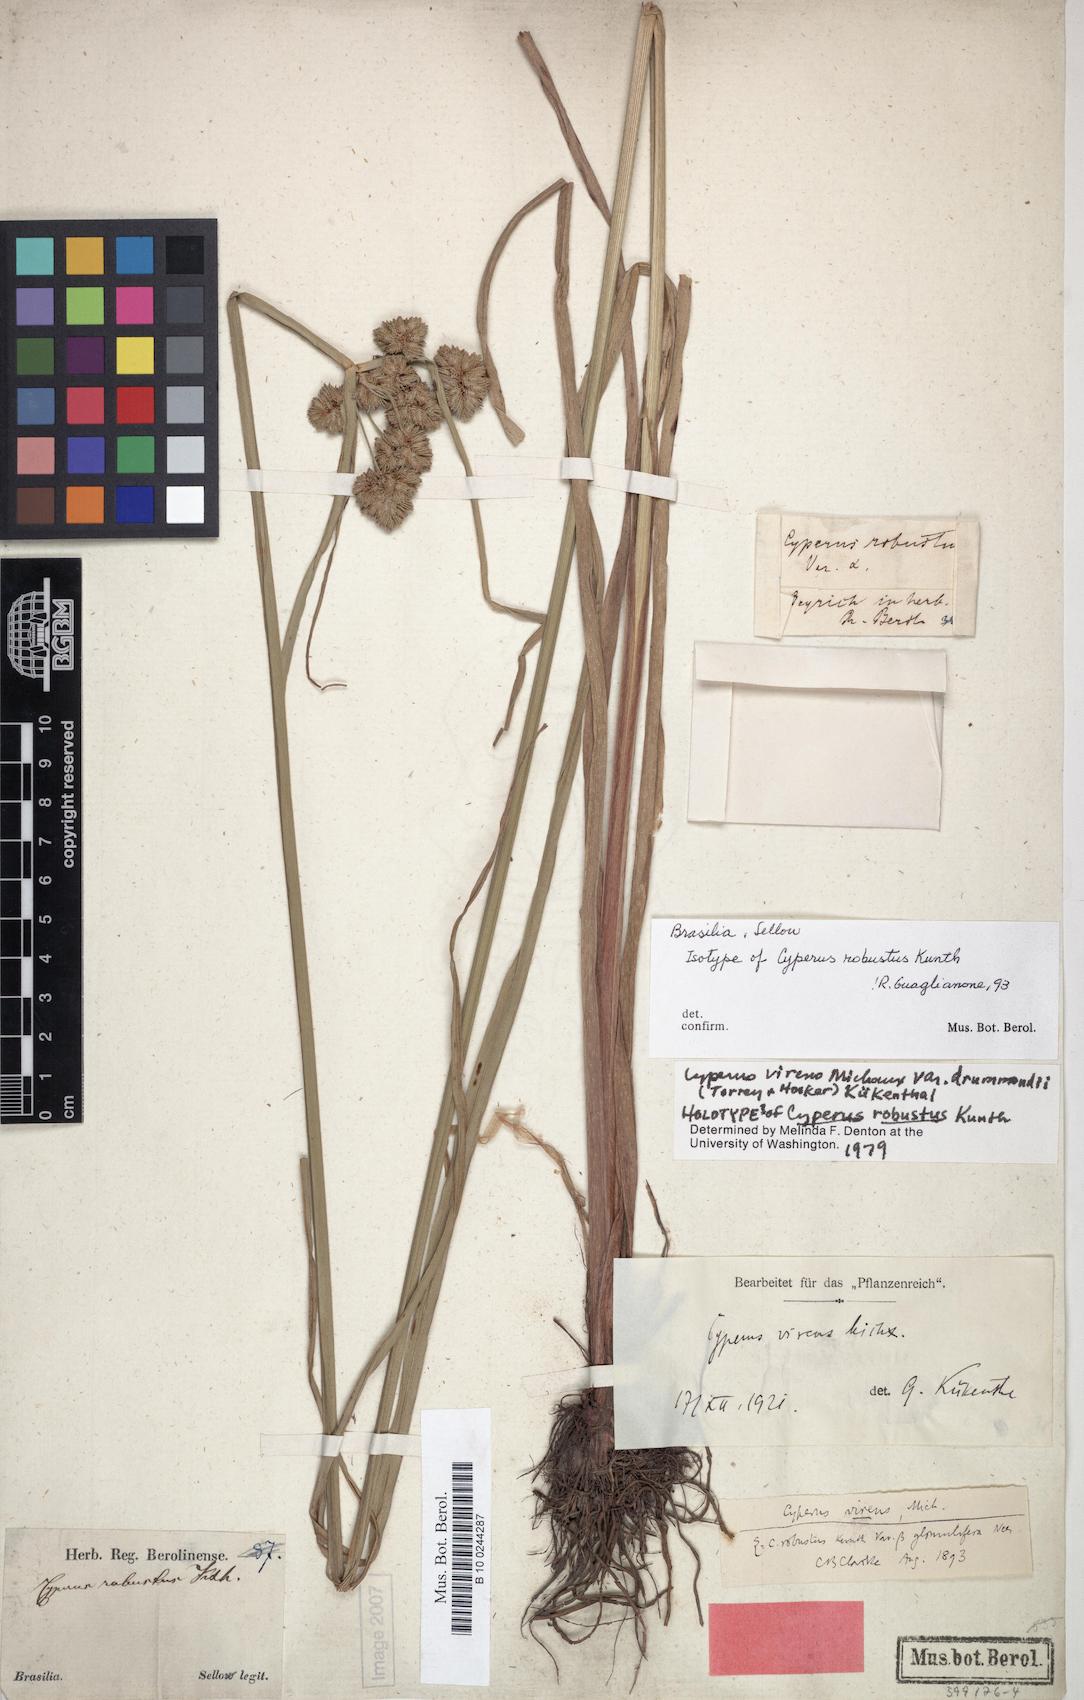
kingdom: Plantae
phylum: Tracheophyta
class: Liliopsida
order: Poales
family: Cyperaceae
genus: Cyperus
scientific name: Cyperus drummondii
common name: Green flat sedge
